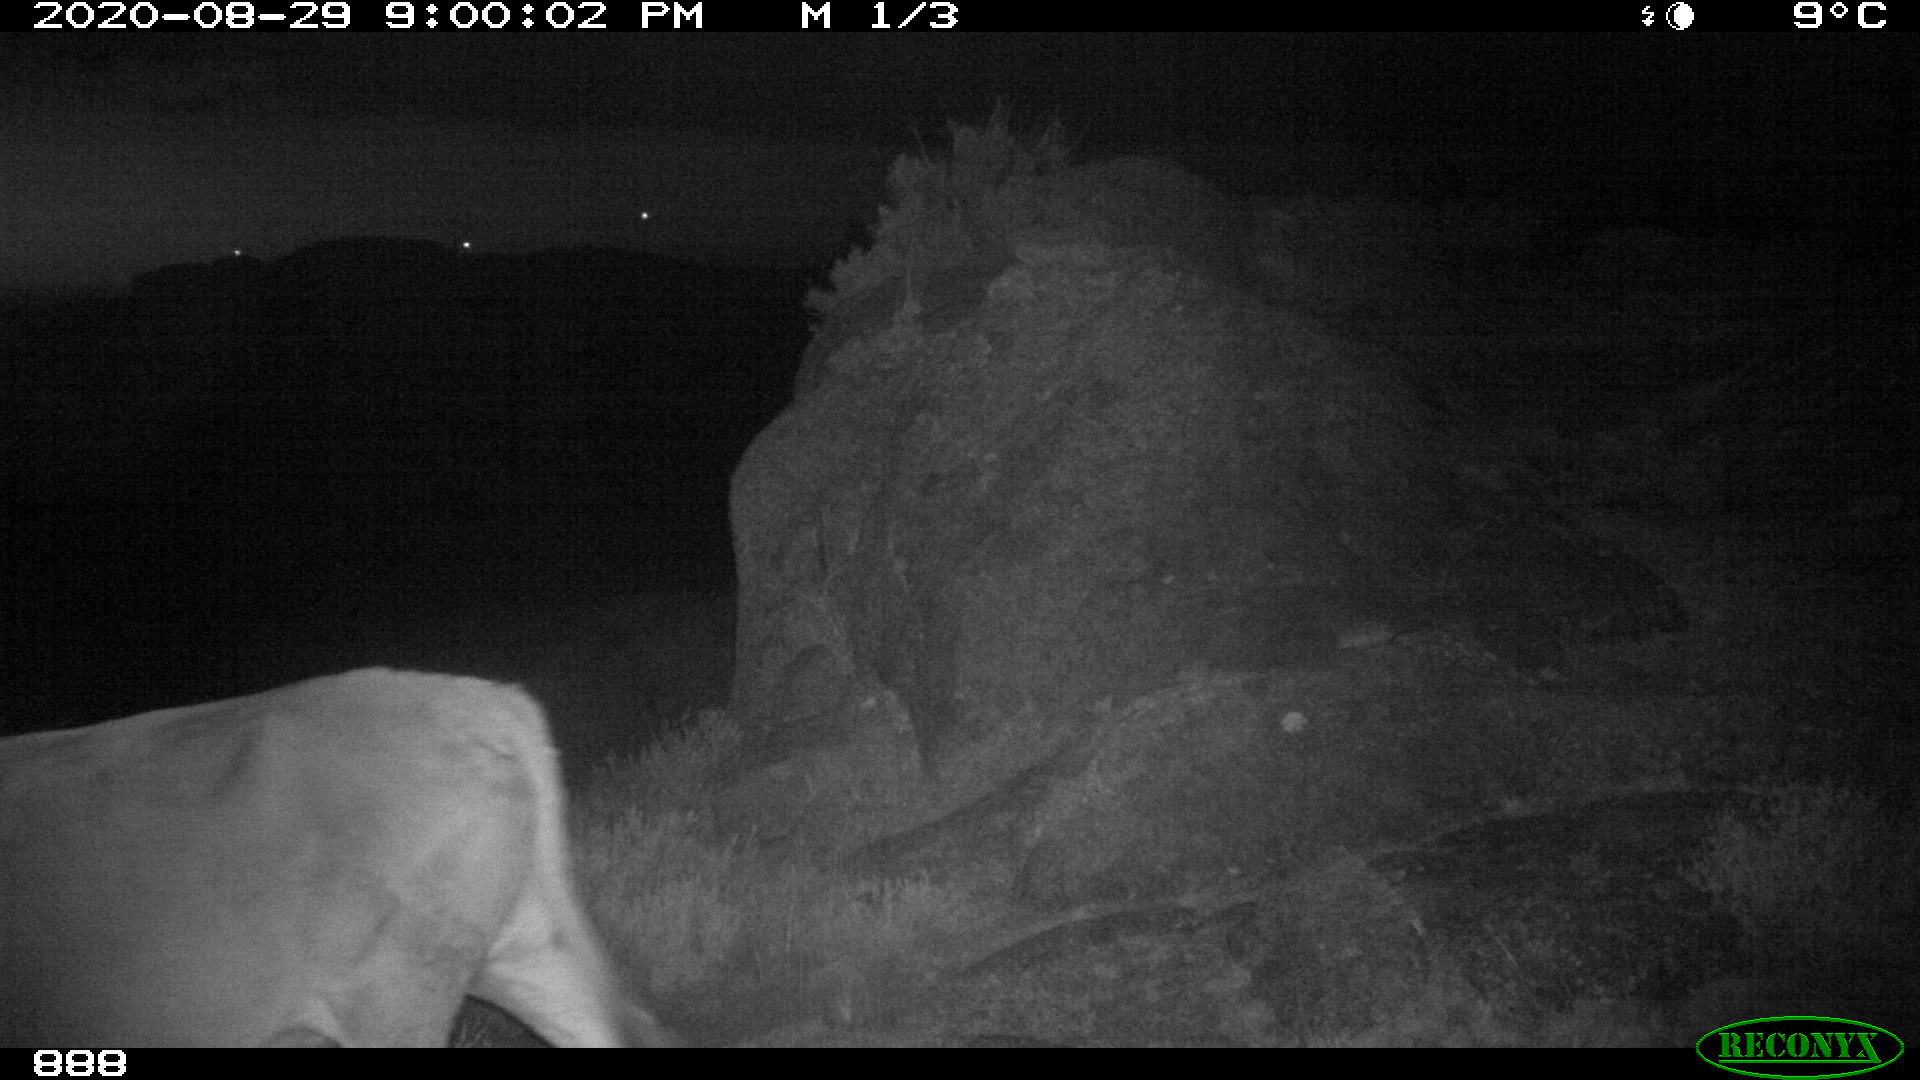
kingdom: Animalia
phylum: Chordata
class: Mammalia
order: Artiodactyla
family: Bovidae
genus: Bos
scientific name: Bos taurus
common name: Domesticated cattle
